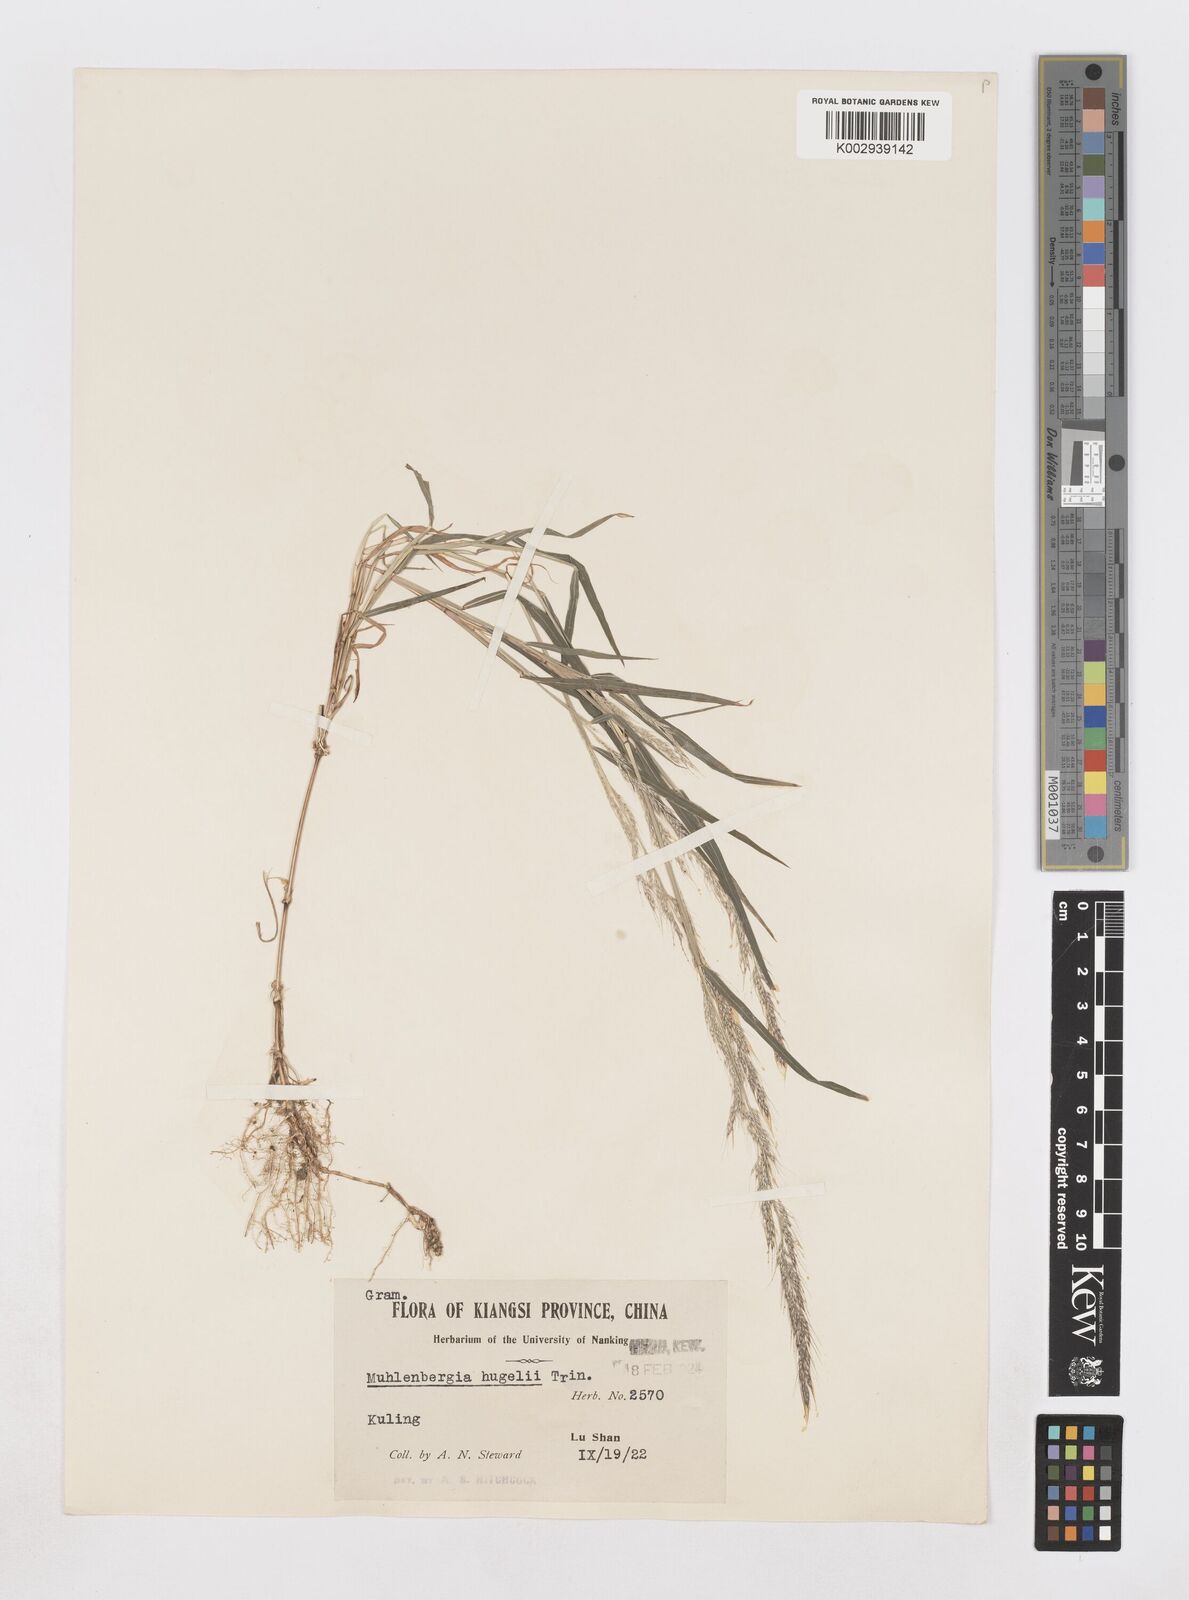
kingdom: Plantae
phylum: Tracheophyta
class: Liliopsida
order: Poales
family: Poaceae
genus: Muhlenbergia
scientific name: Muhlenbergia
